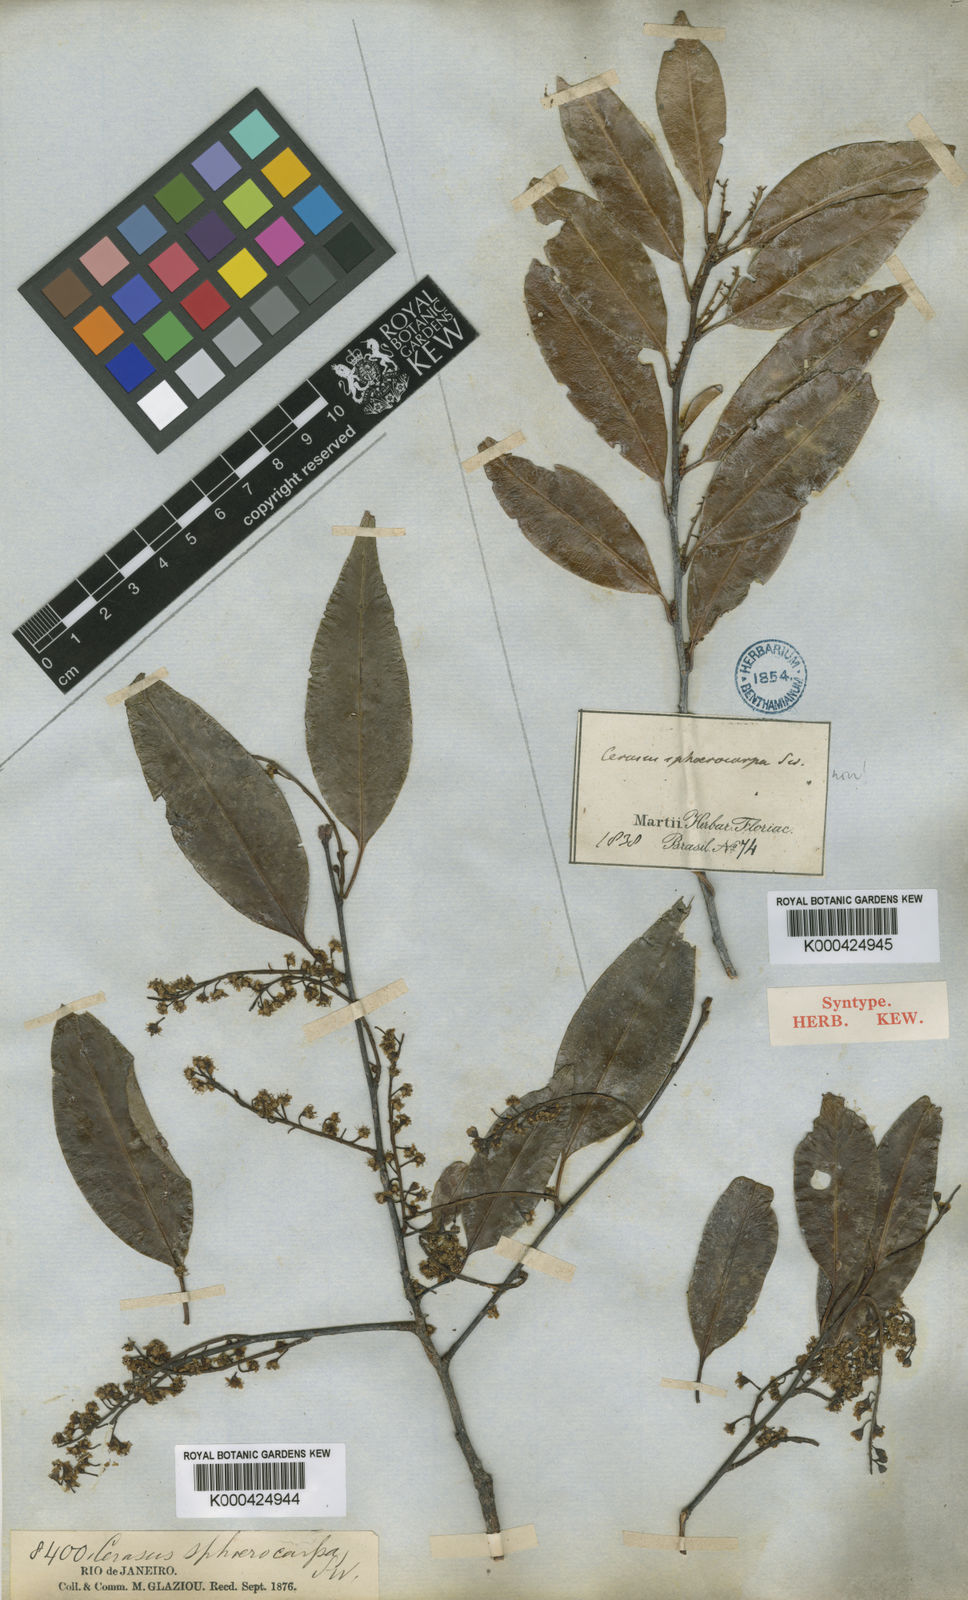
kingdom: Plantae
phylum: Tracheophyta
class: Magnoliopsida
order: Rosales
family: Rosaceae
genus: Prunus
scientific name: Prunus reflexa
